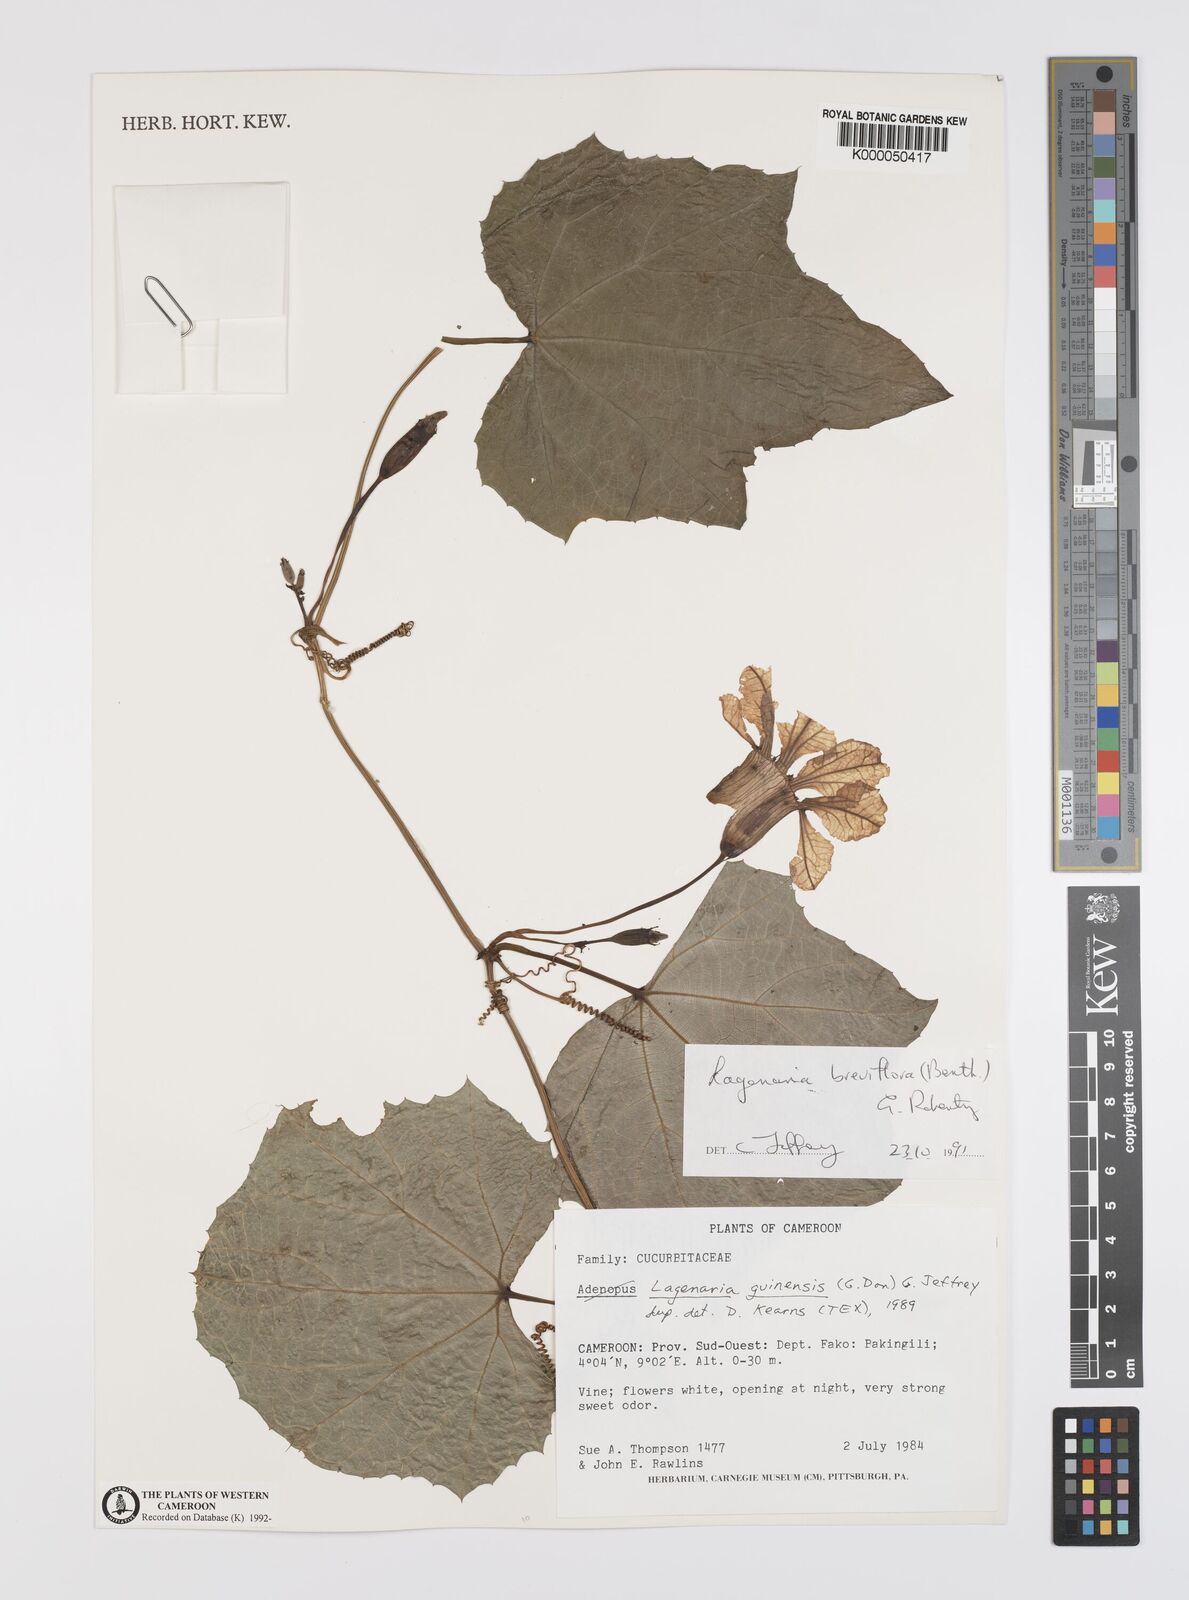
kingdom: Plantae
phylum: Tracheophyta
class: Magnoliopsida
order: Cucurbitales
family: Cucurbitaceae
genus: Lagenaria
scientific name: Lagenaria breviflora
